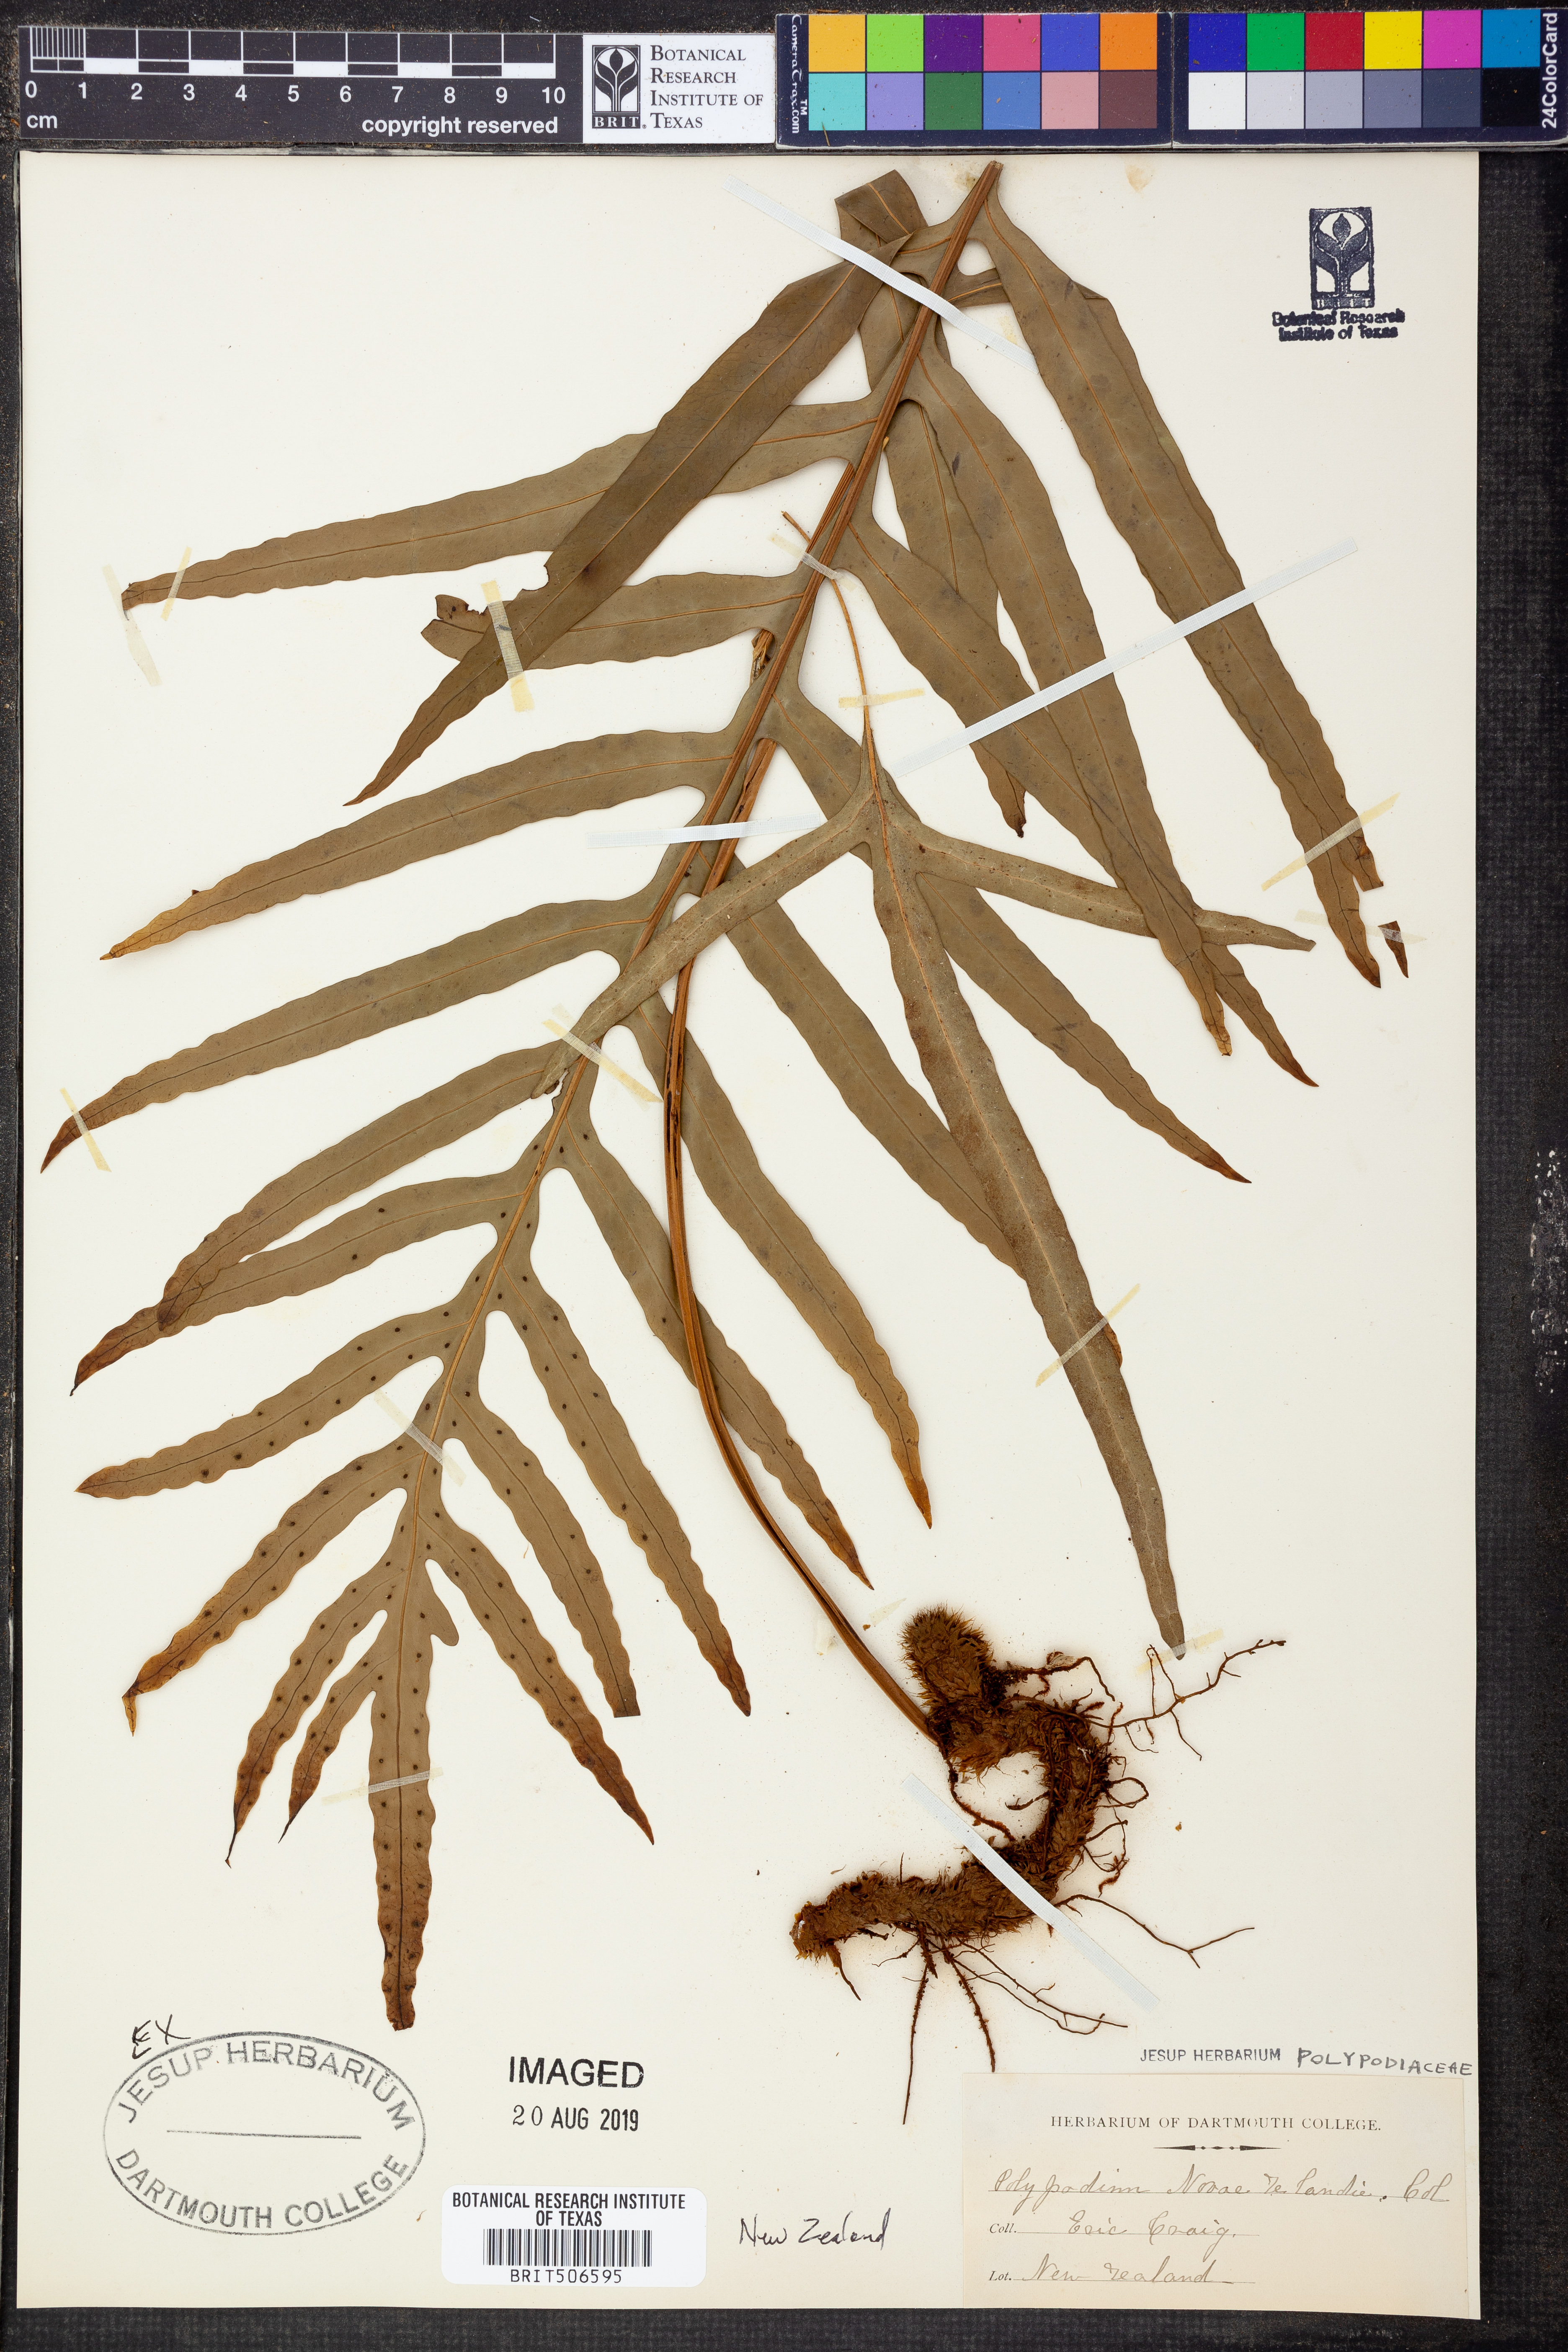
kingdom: Plantae
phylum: Tracheophyta
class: Polypodiopsida
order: Polypodiales
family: Polypodiaceae
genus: Lecanopteris
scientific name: Lecanopteris novae-zealandiae
